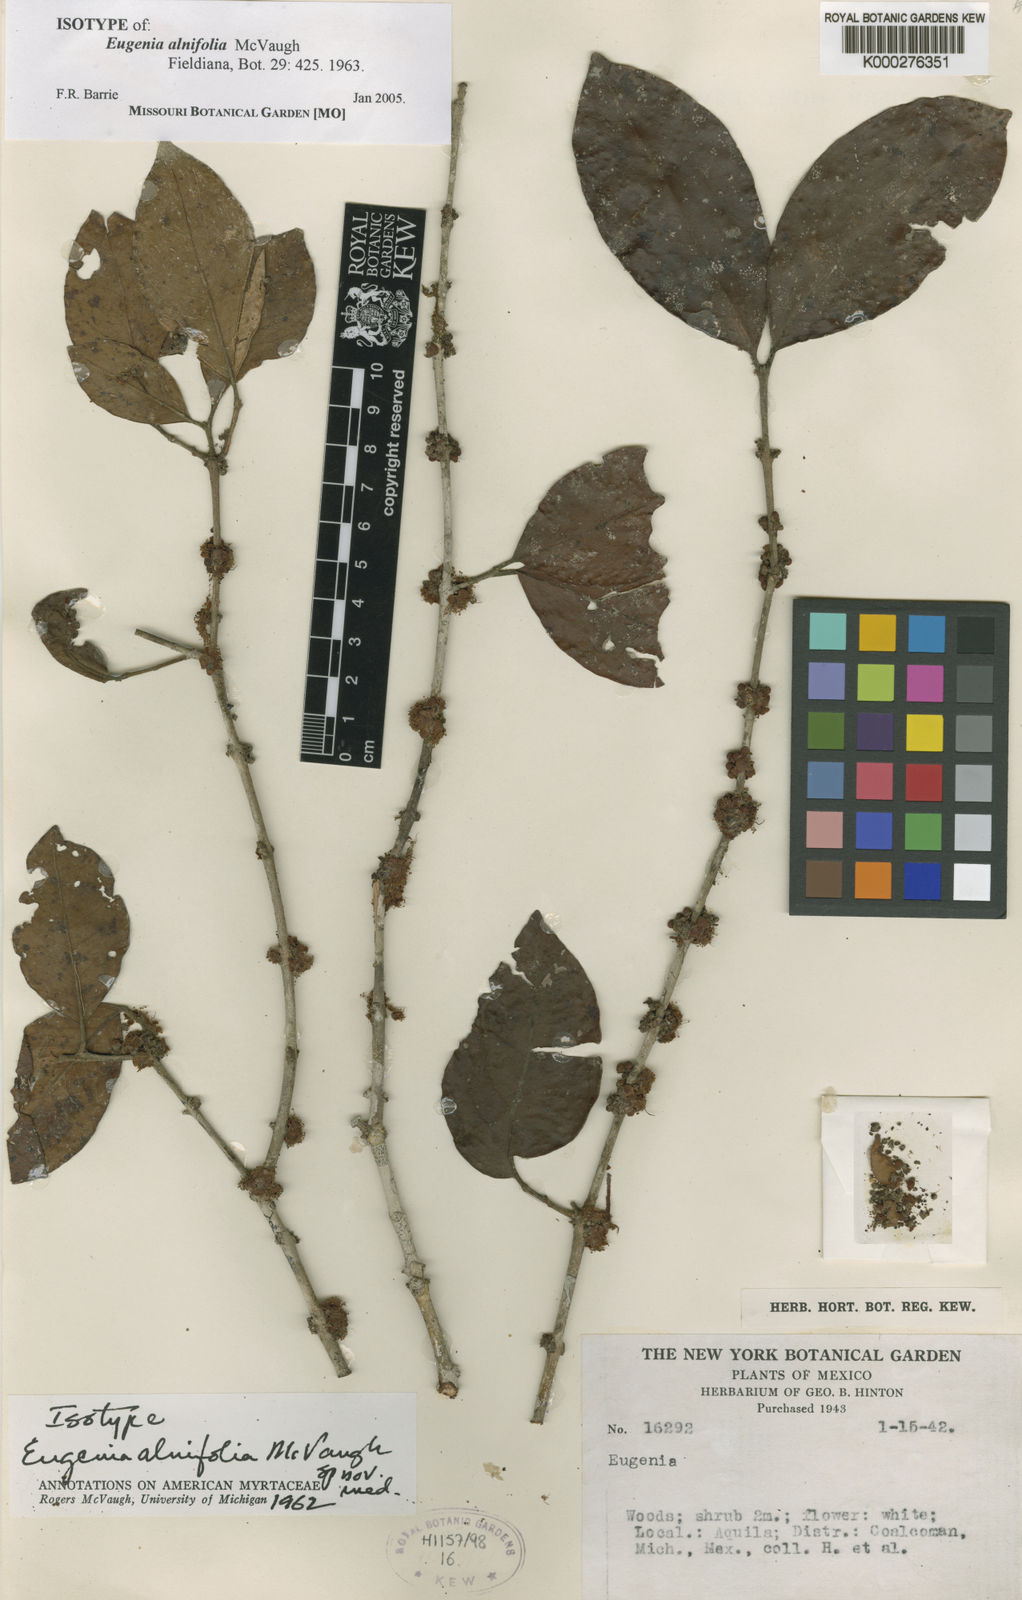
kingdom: Plantae
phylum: Tracheophyta
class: Magnoliopsida
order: Myrtales
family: Myrtaceae
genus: Eugenia
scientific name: Eugenia alnifolia
